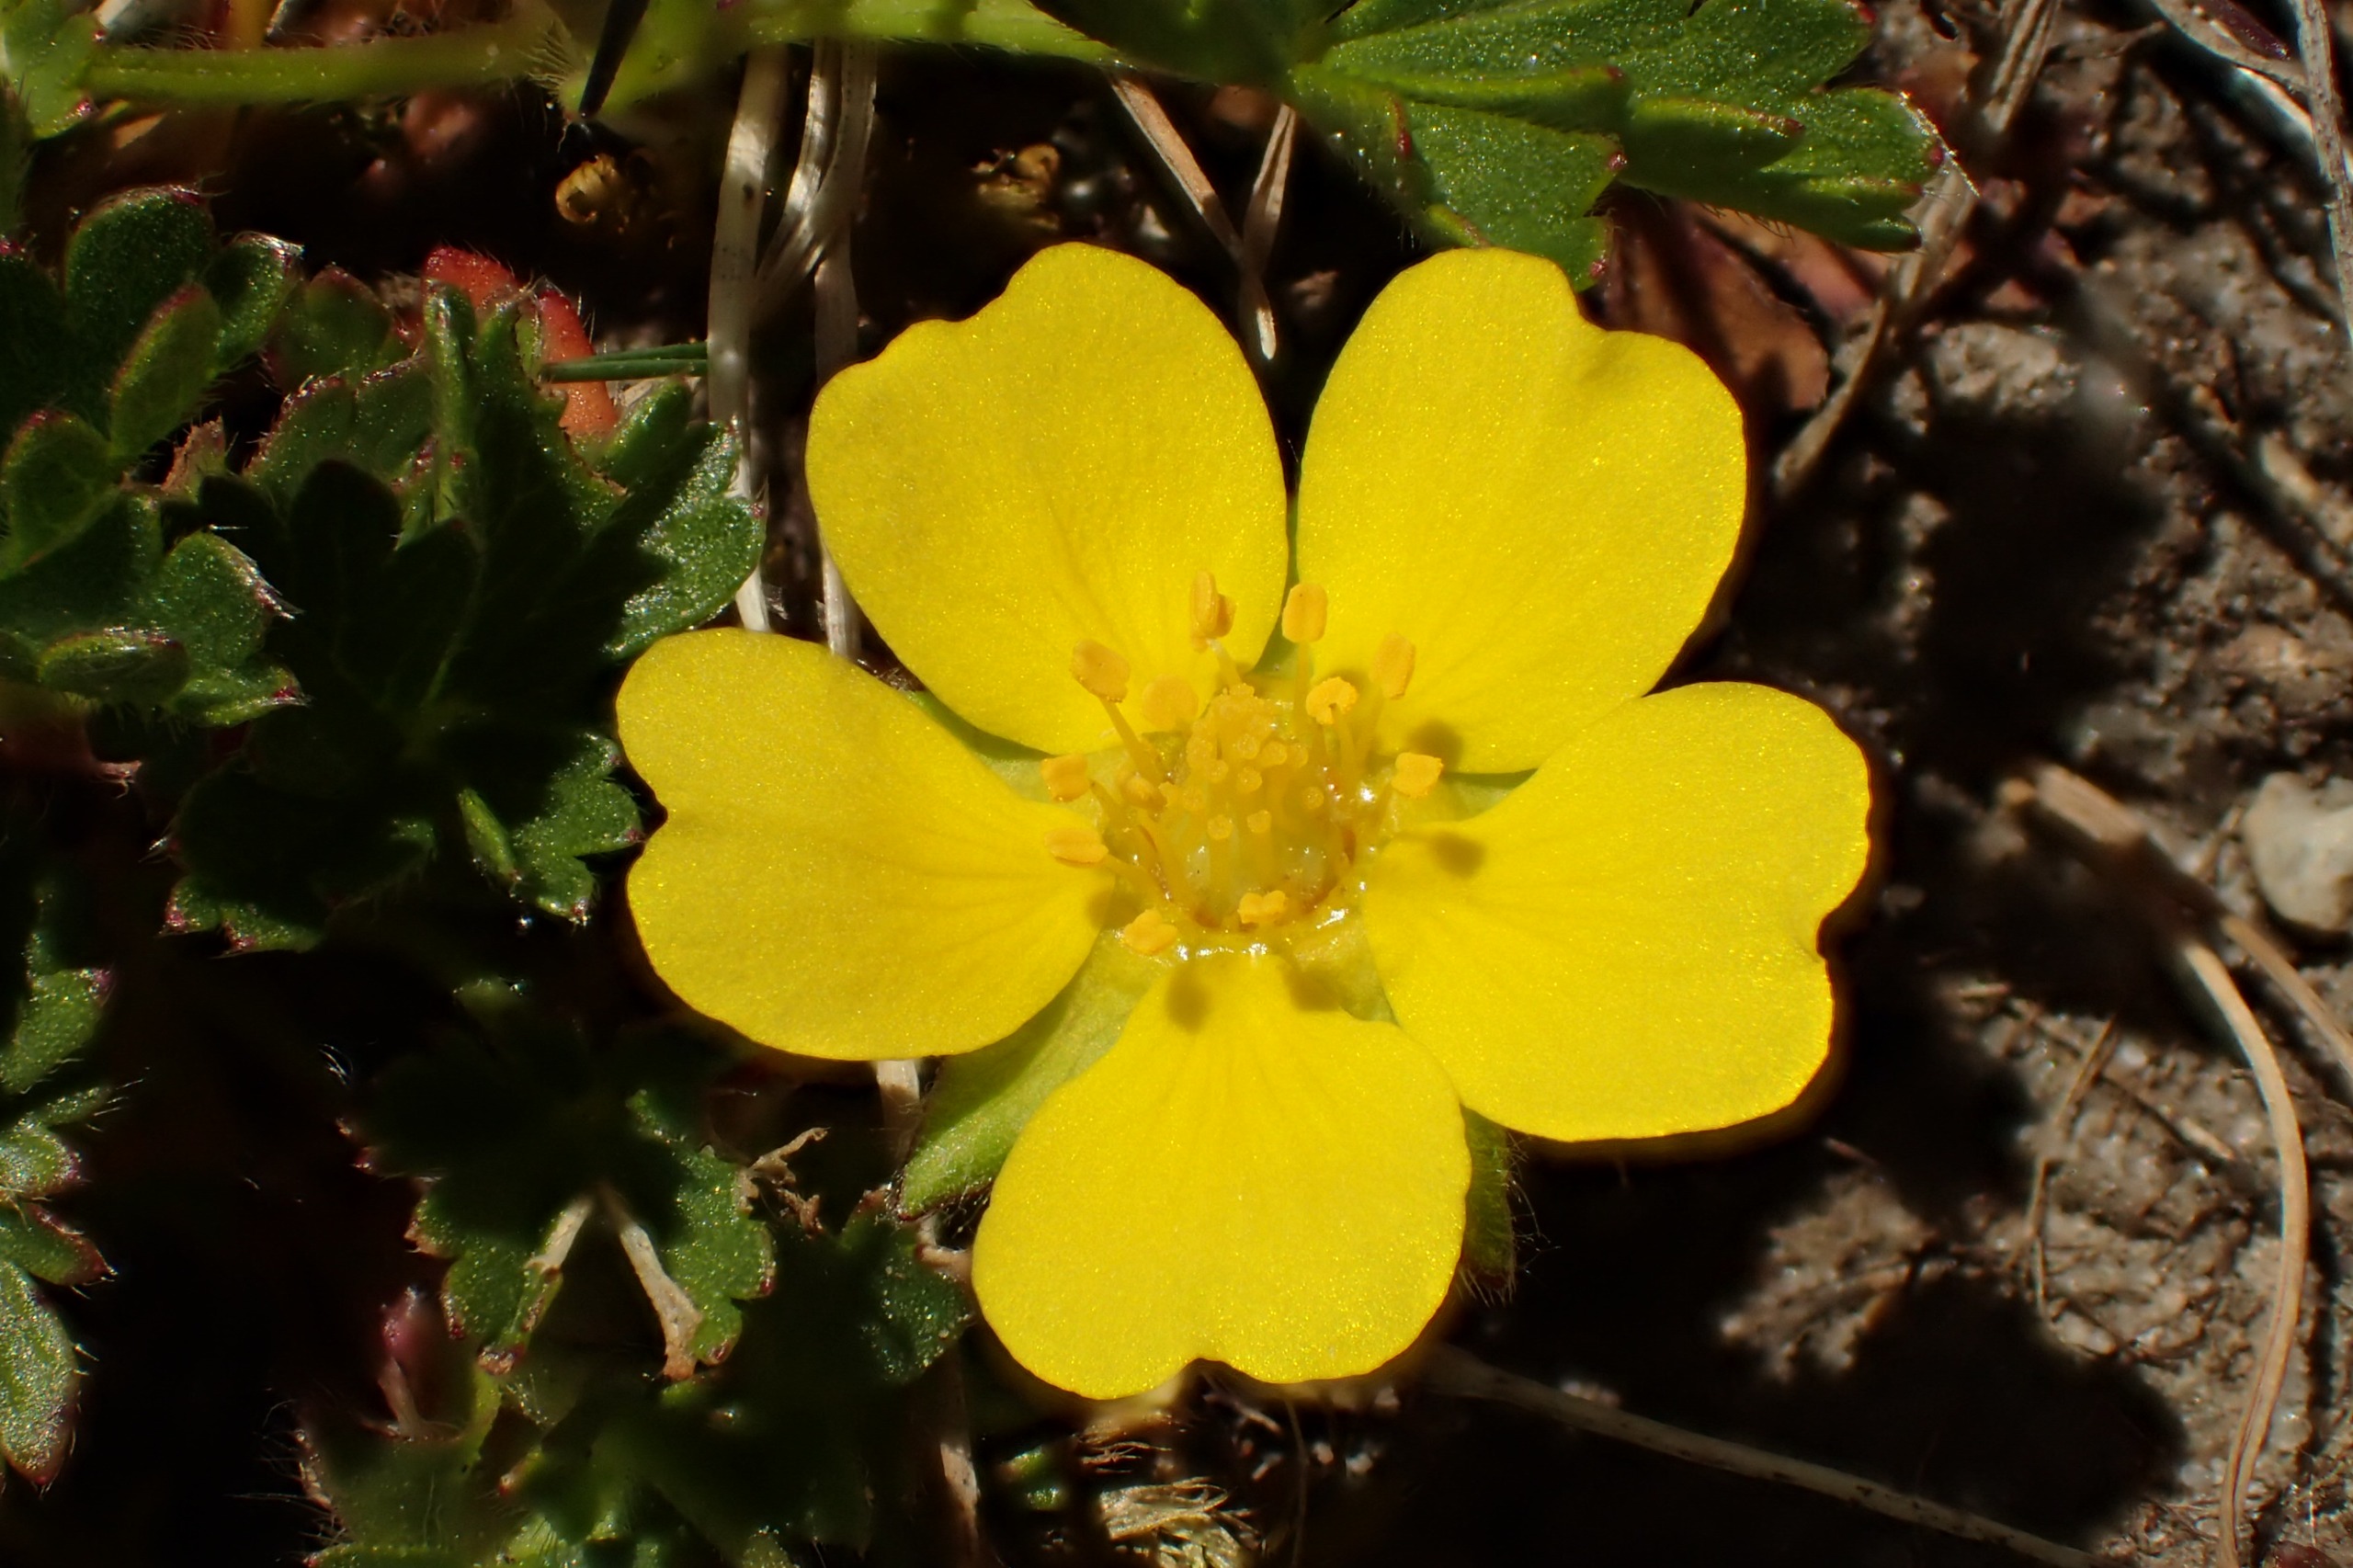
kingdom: Plantae
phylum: Tracheophyta
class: Magnoliopsida
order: Rosales
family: Rosaceae
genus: Potentilla
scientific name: Potentilla verna
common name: Vår-potentil
